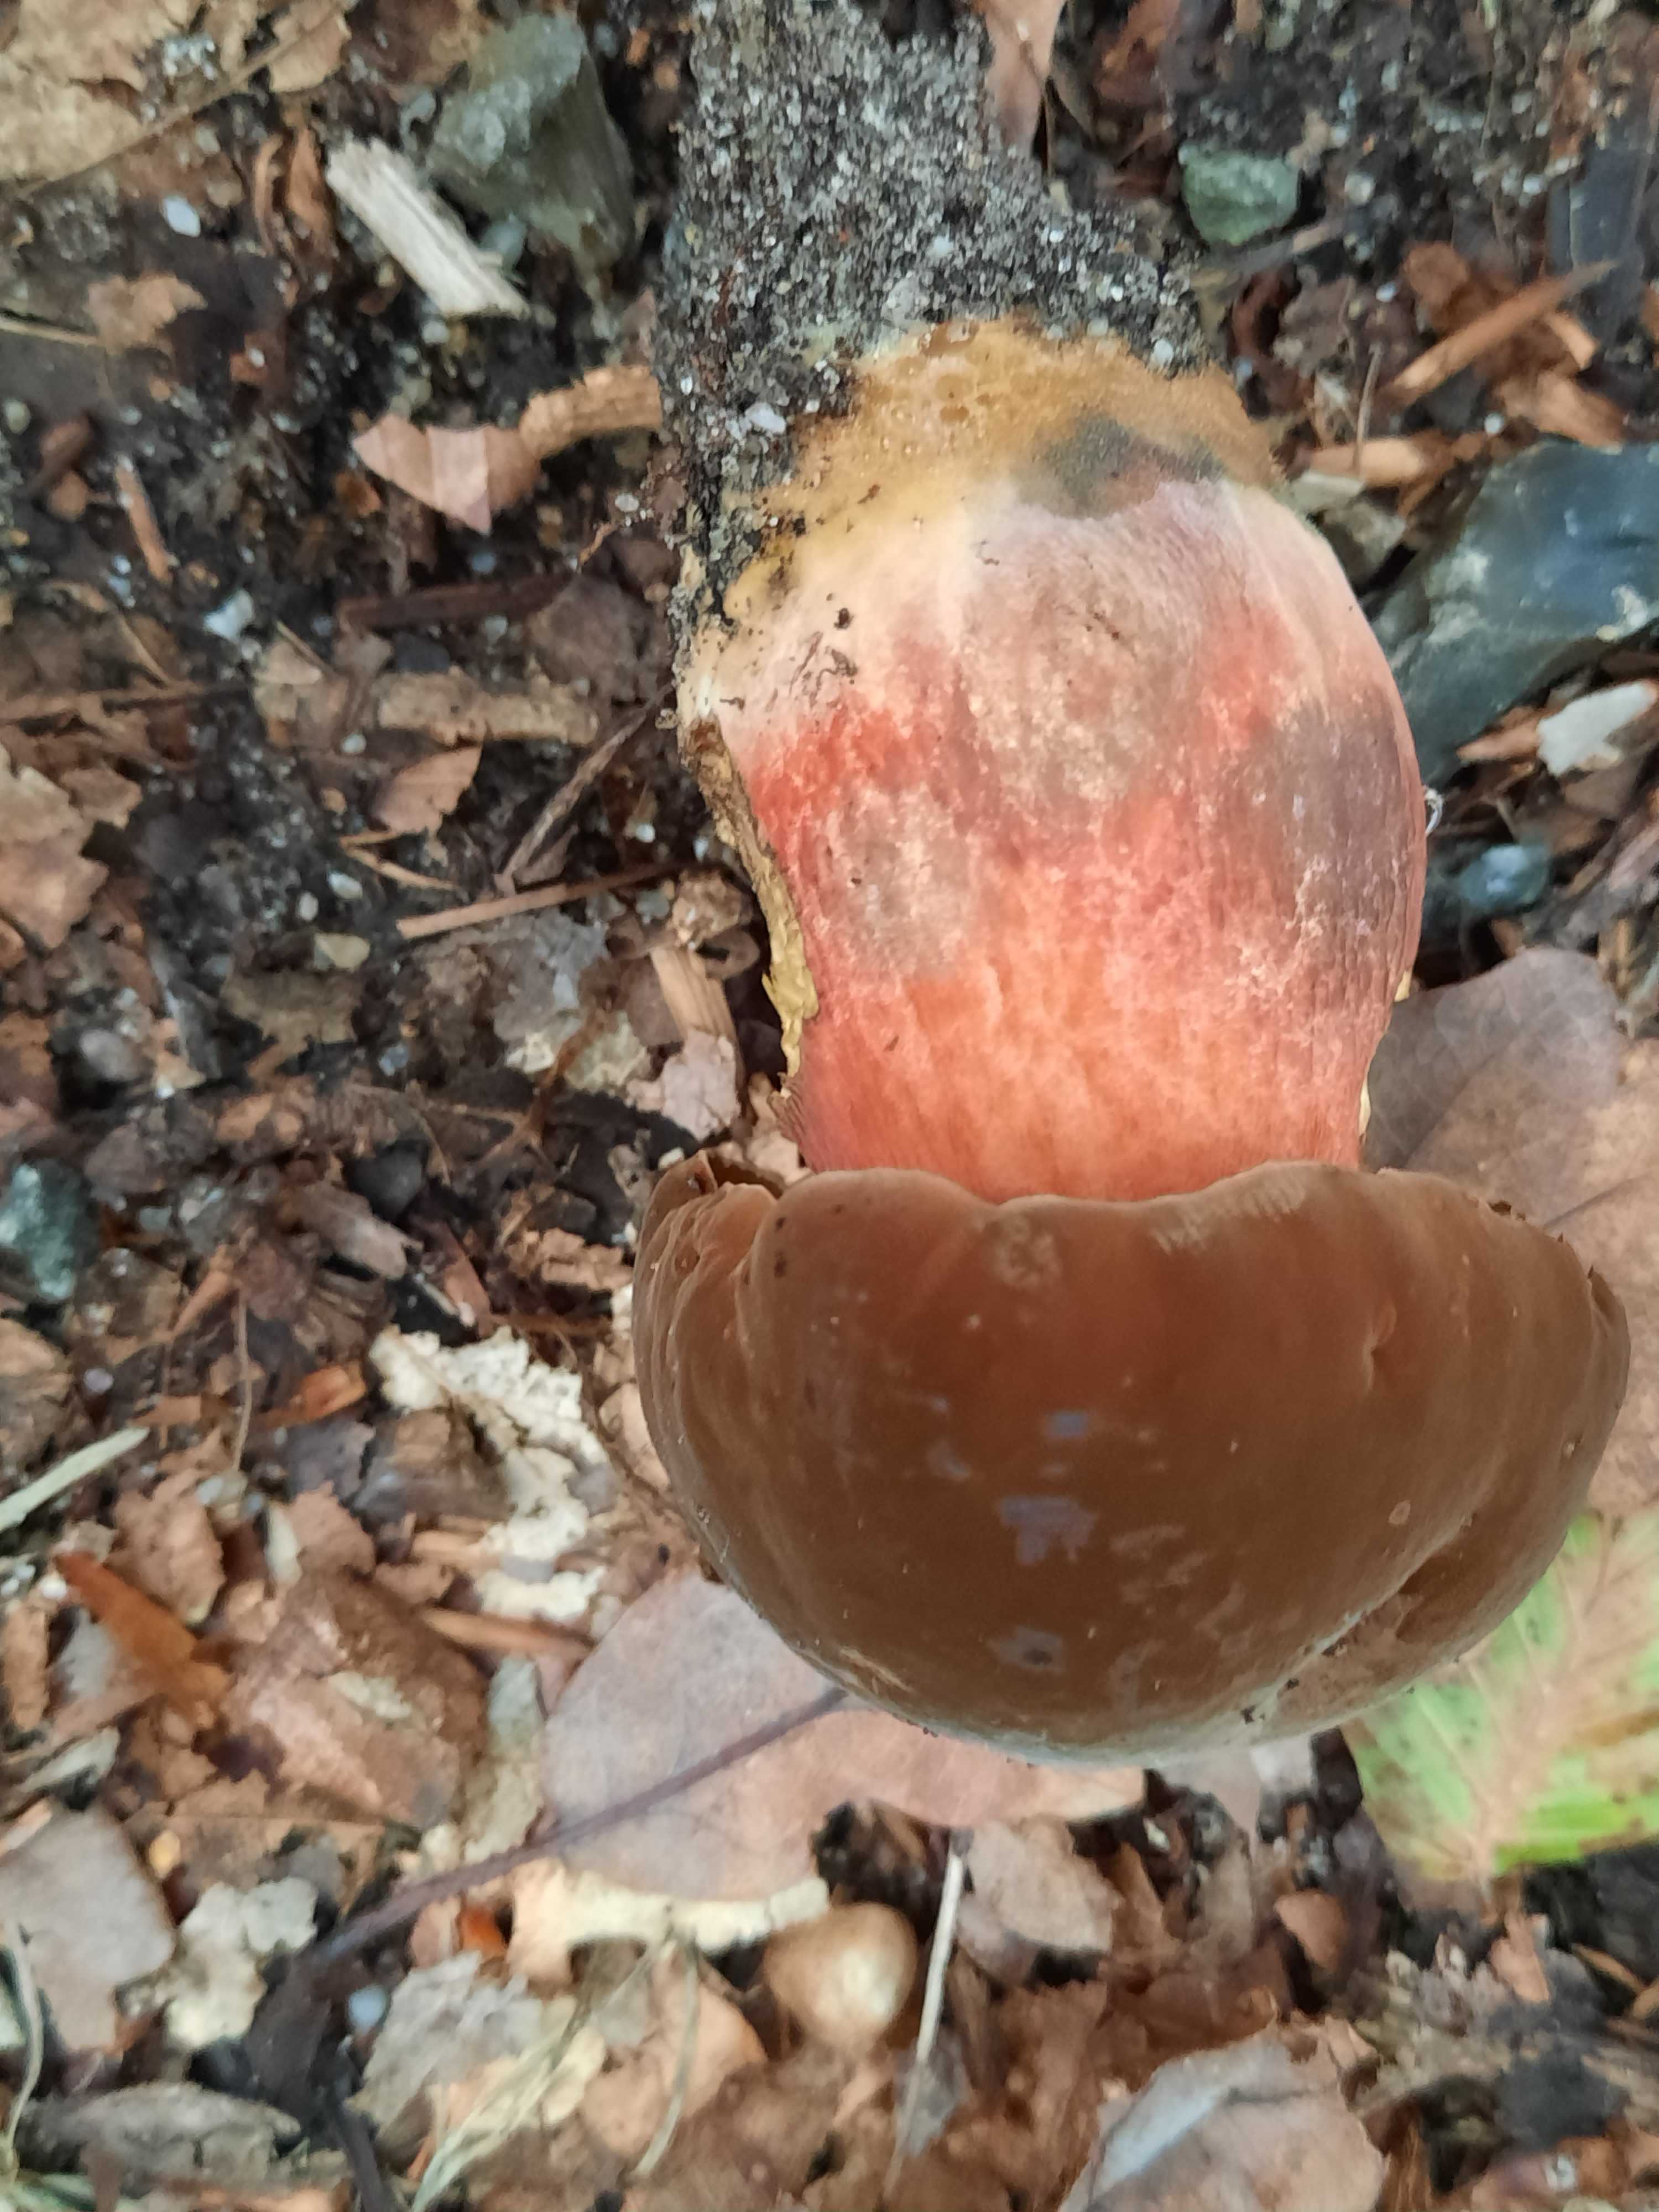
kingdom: Fungi
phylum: Basidiomycota
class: Agaricomycetes
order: Boletales
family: Boletaceae
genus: Neoboletus
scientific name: Neoboletus erythropus
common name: punktstokket indigorørhat
